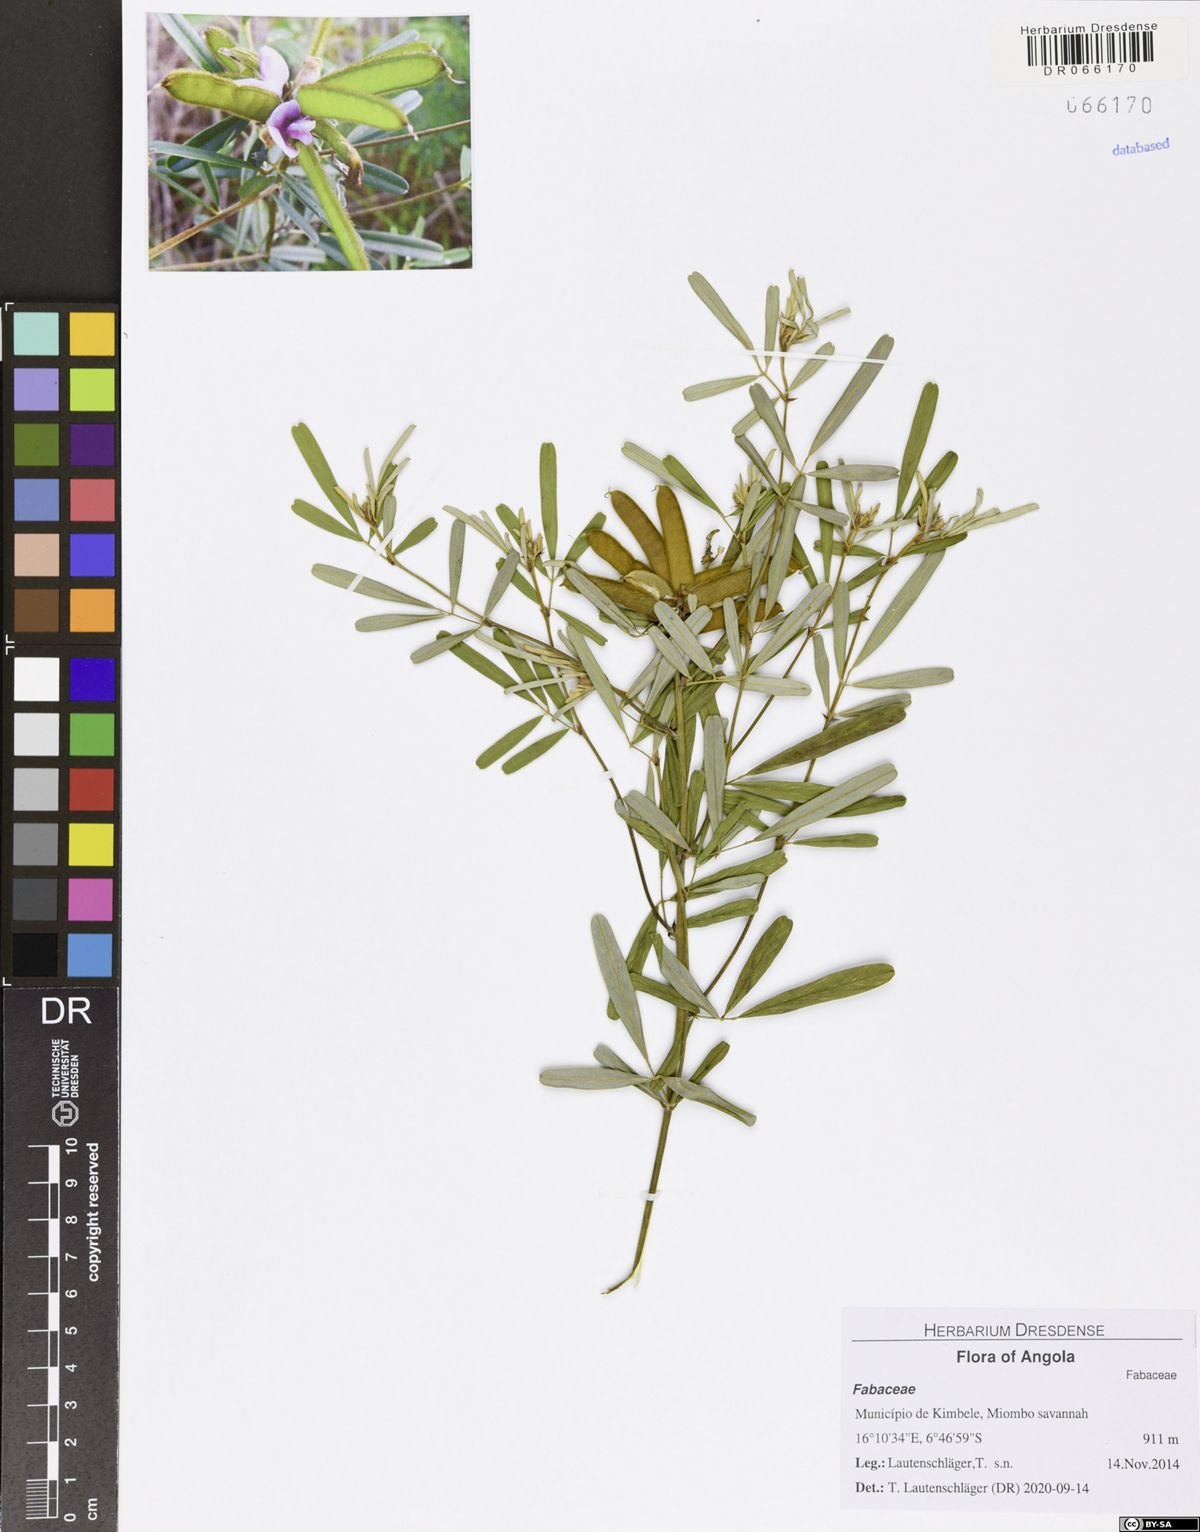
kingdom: Plantae
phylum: Tracheophyta
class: Magnoliopsida
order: Fabales
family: Fabaceae
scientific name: Fabaceae
